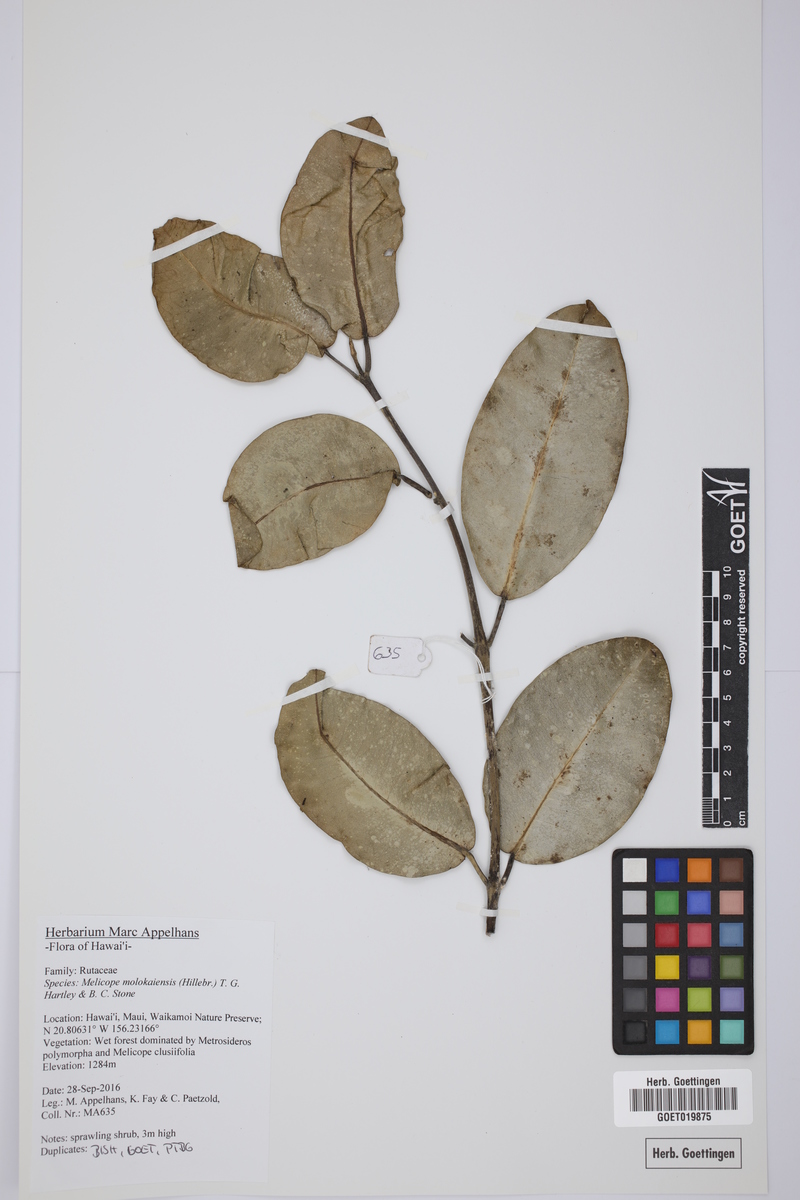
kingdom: Plantae
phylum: Tracheophyta
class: Magnoliopsida
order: Sapindales
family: Rutaceae
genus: Melicope
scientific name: Melicope molokaiensis
